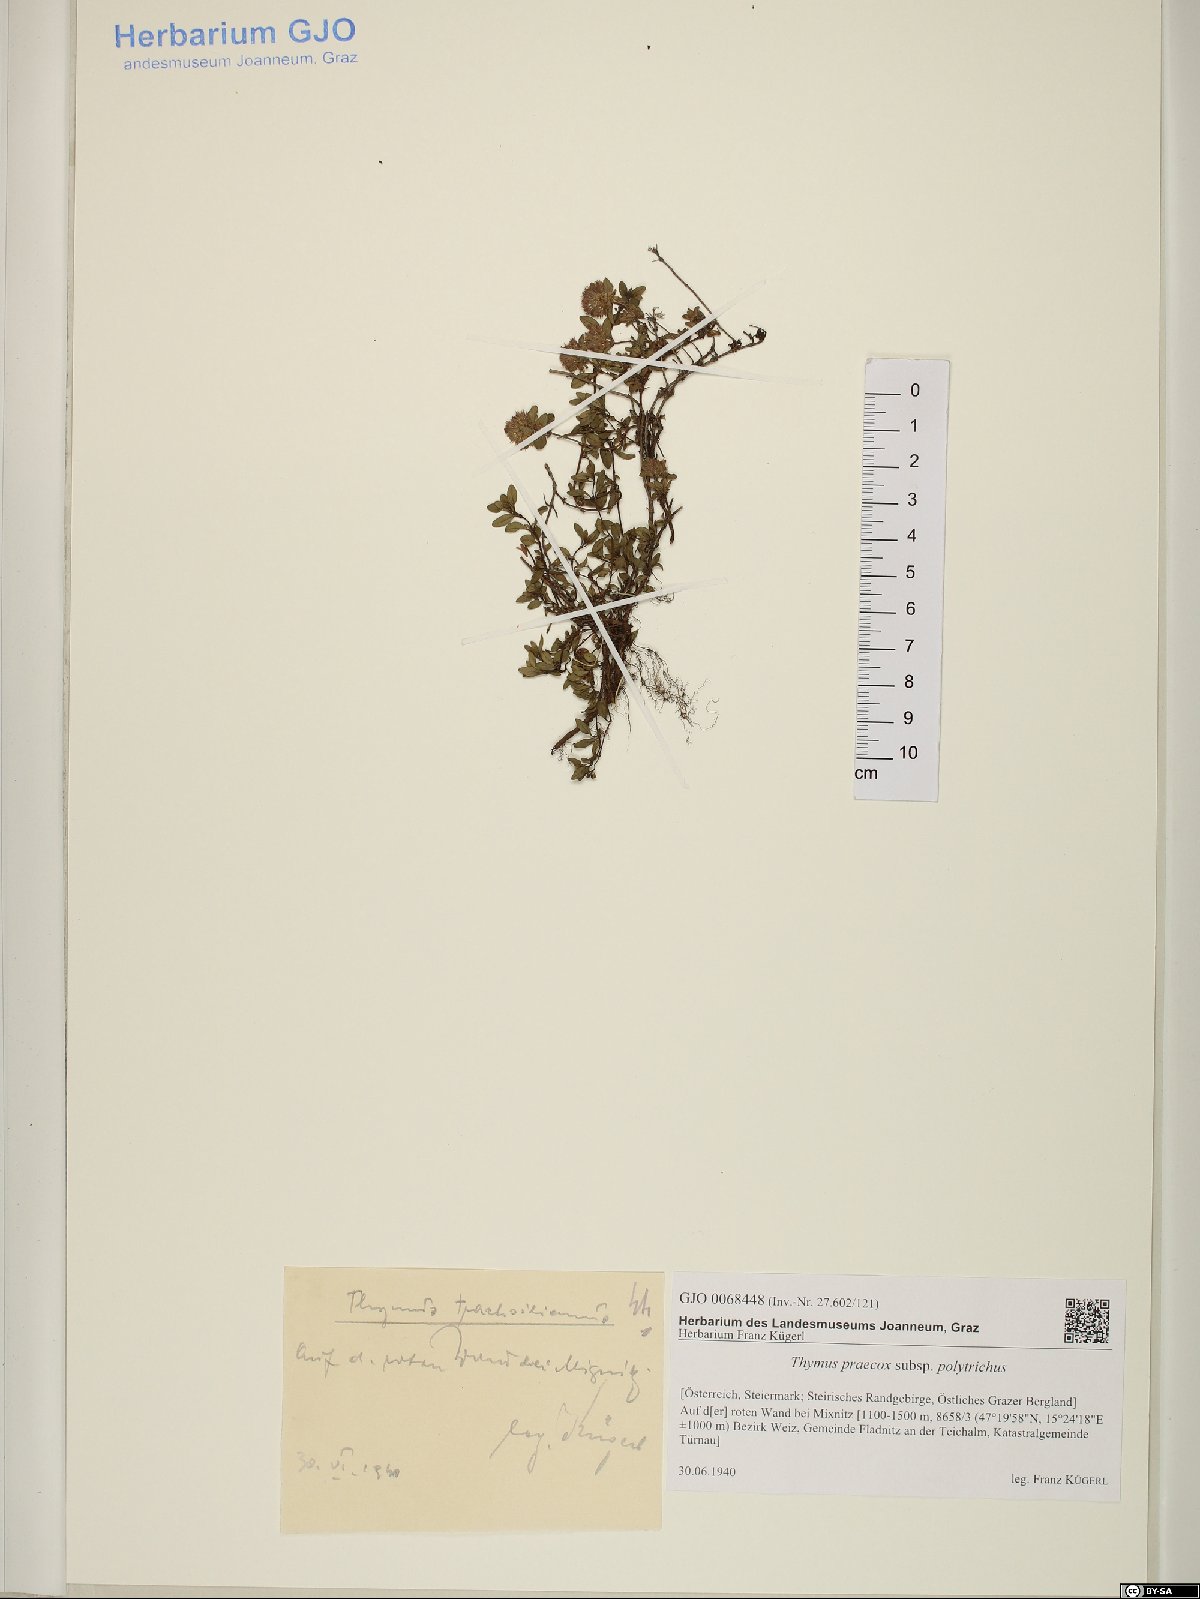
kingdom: Plantae
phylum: Tracheophyta
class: Magnoliopsida
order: Lamiales
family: Lamiaceae
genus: Thymus
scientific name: Thymus praecox
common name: Wild thyme
